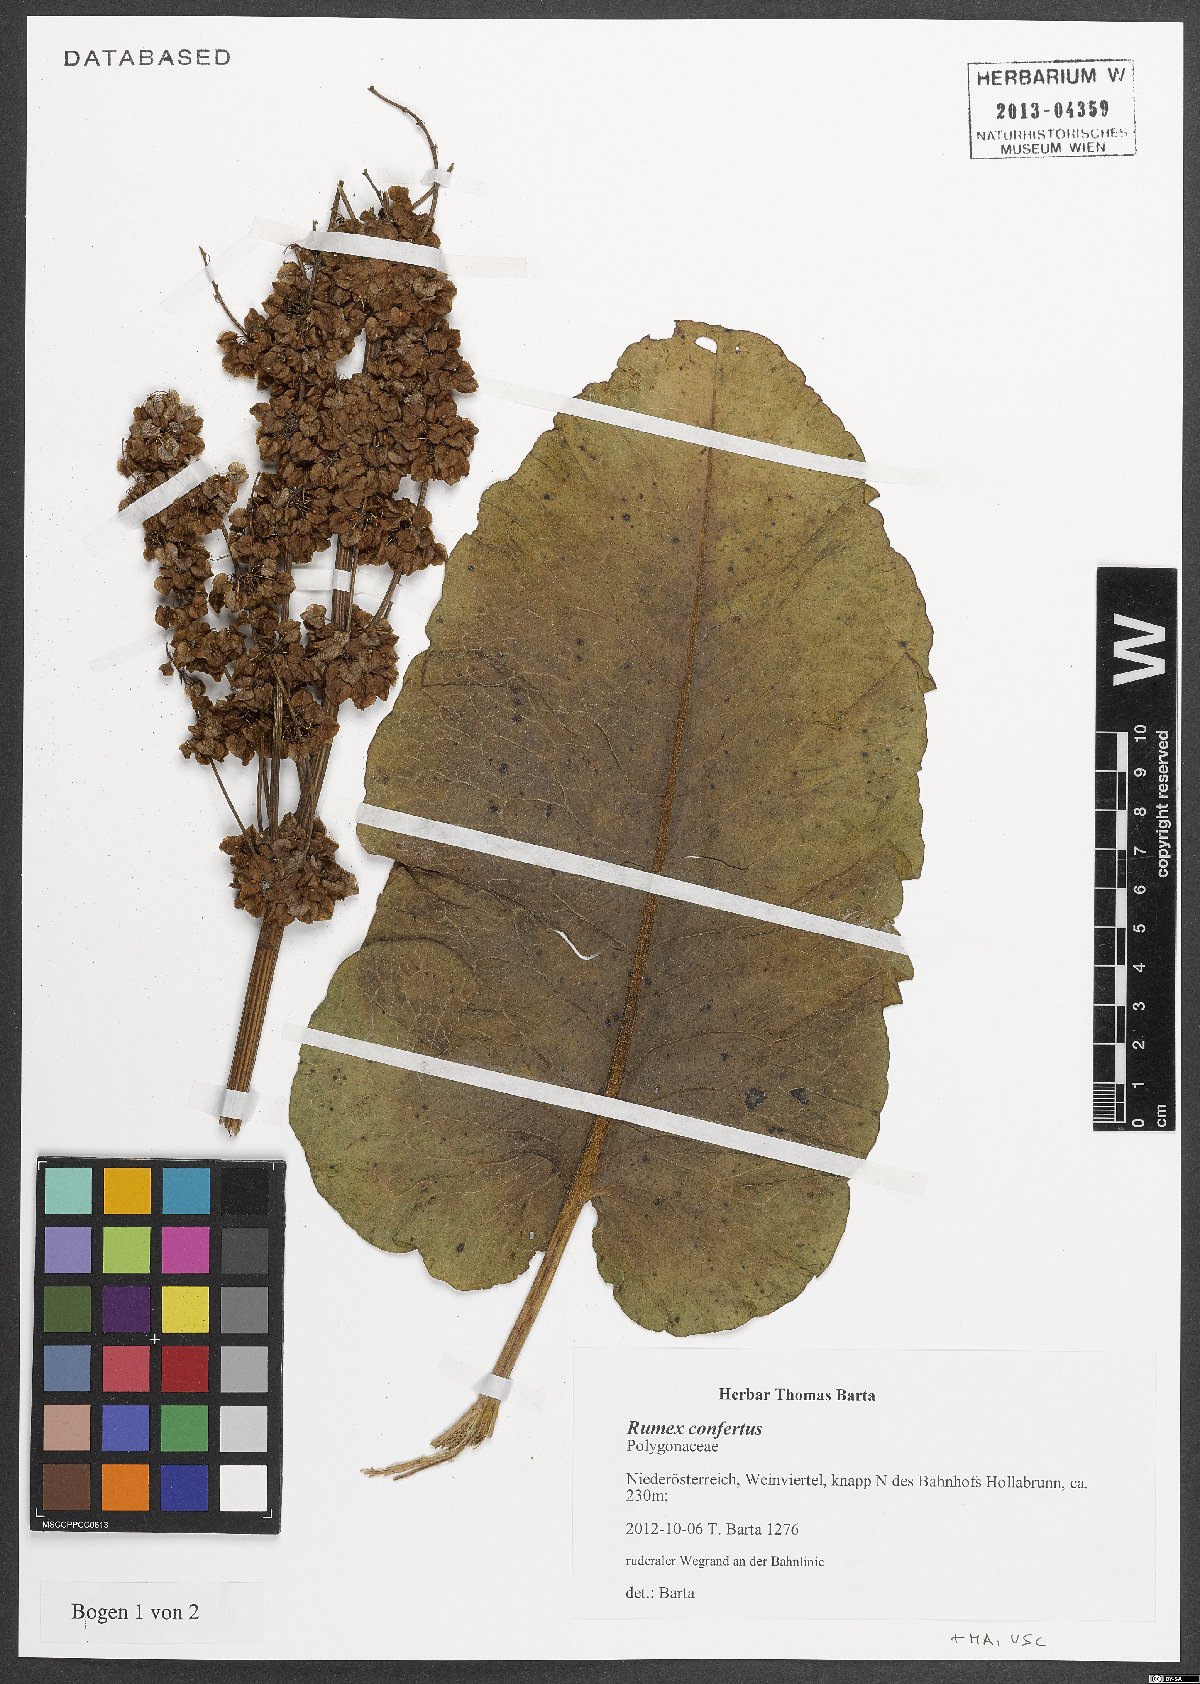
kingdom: Plantae
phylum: Tracheophyta
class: Magnoliopsida
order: Caryophyllales
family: Polygonaceae
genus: Rumex
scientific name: Rumex confertus
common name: Russian dock
